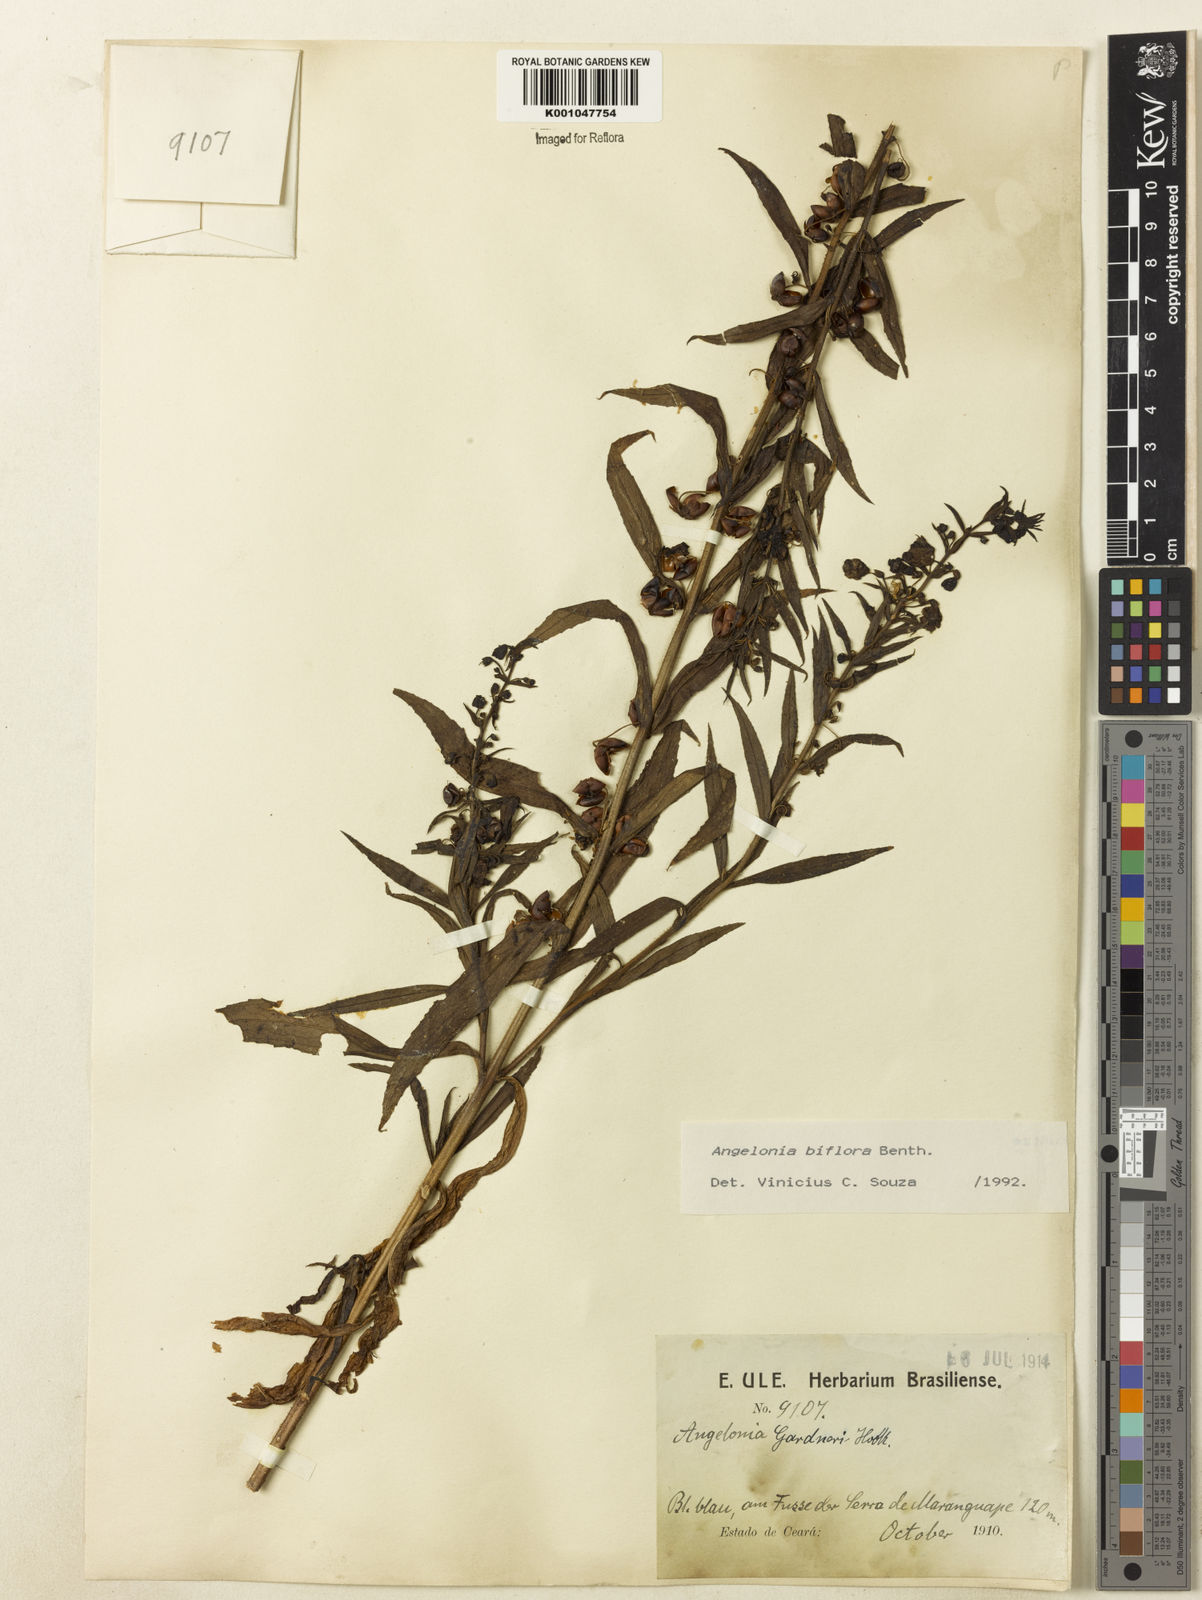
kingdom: Plantae
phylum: Tracheophyta
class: Magnoliopsida
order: Lamiales
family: Plantaginaceae
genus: Angelonia
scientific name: Angelonia biflora
